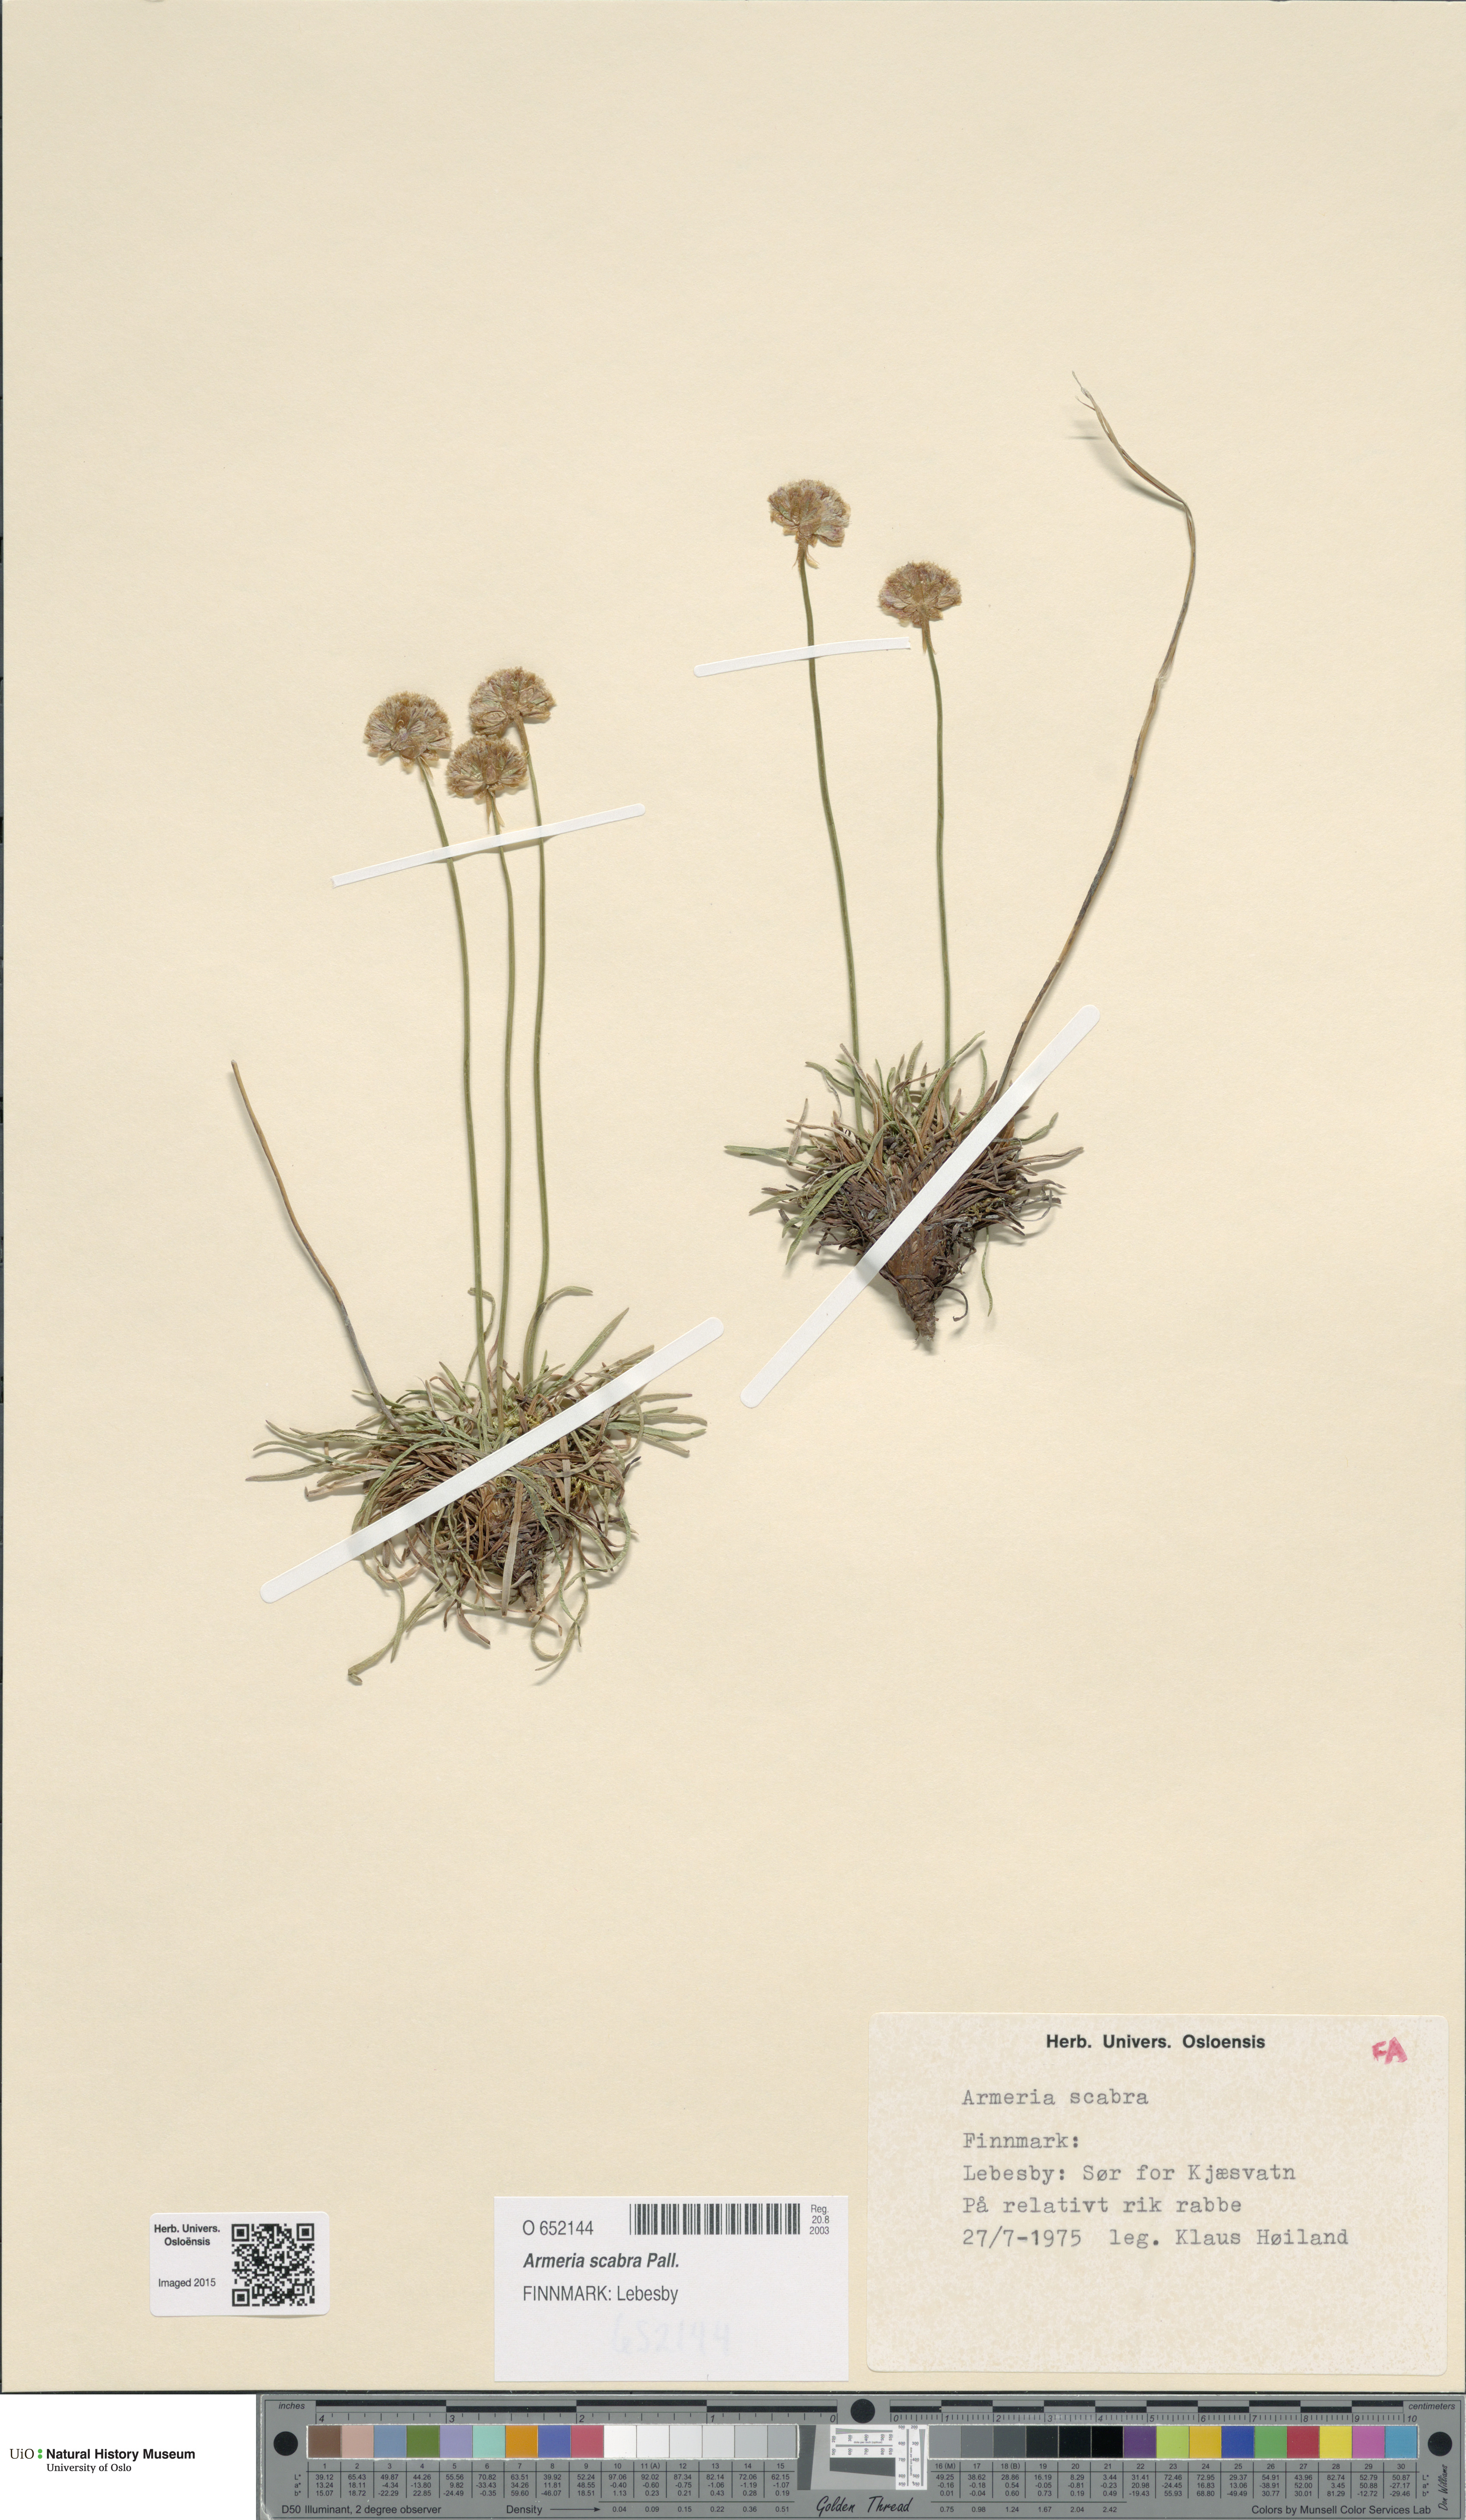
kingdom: Plantae
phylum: Tracheophyta
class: Magnoliopsida
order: Caryophyllales
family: Plumbaginaceae
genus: Armeria
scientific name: Armeria maritima
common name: Thrift
